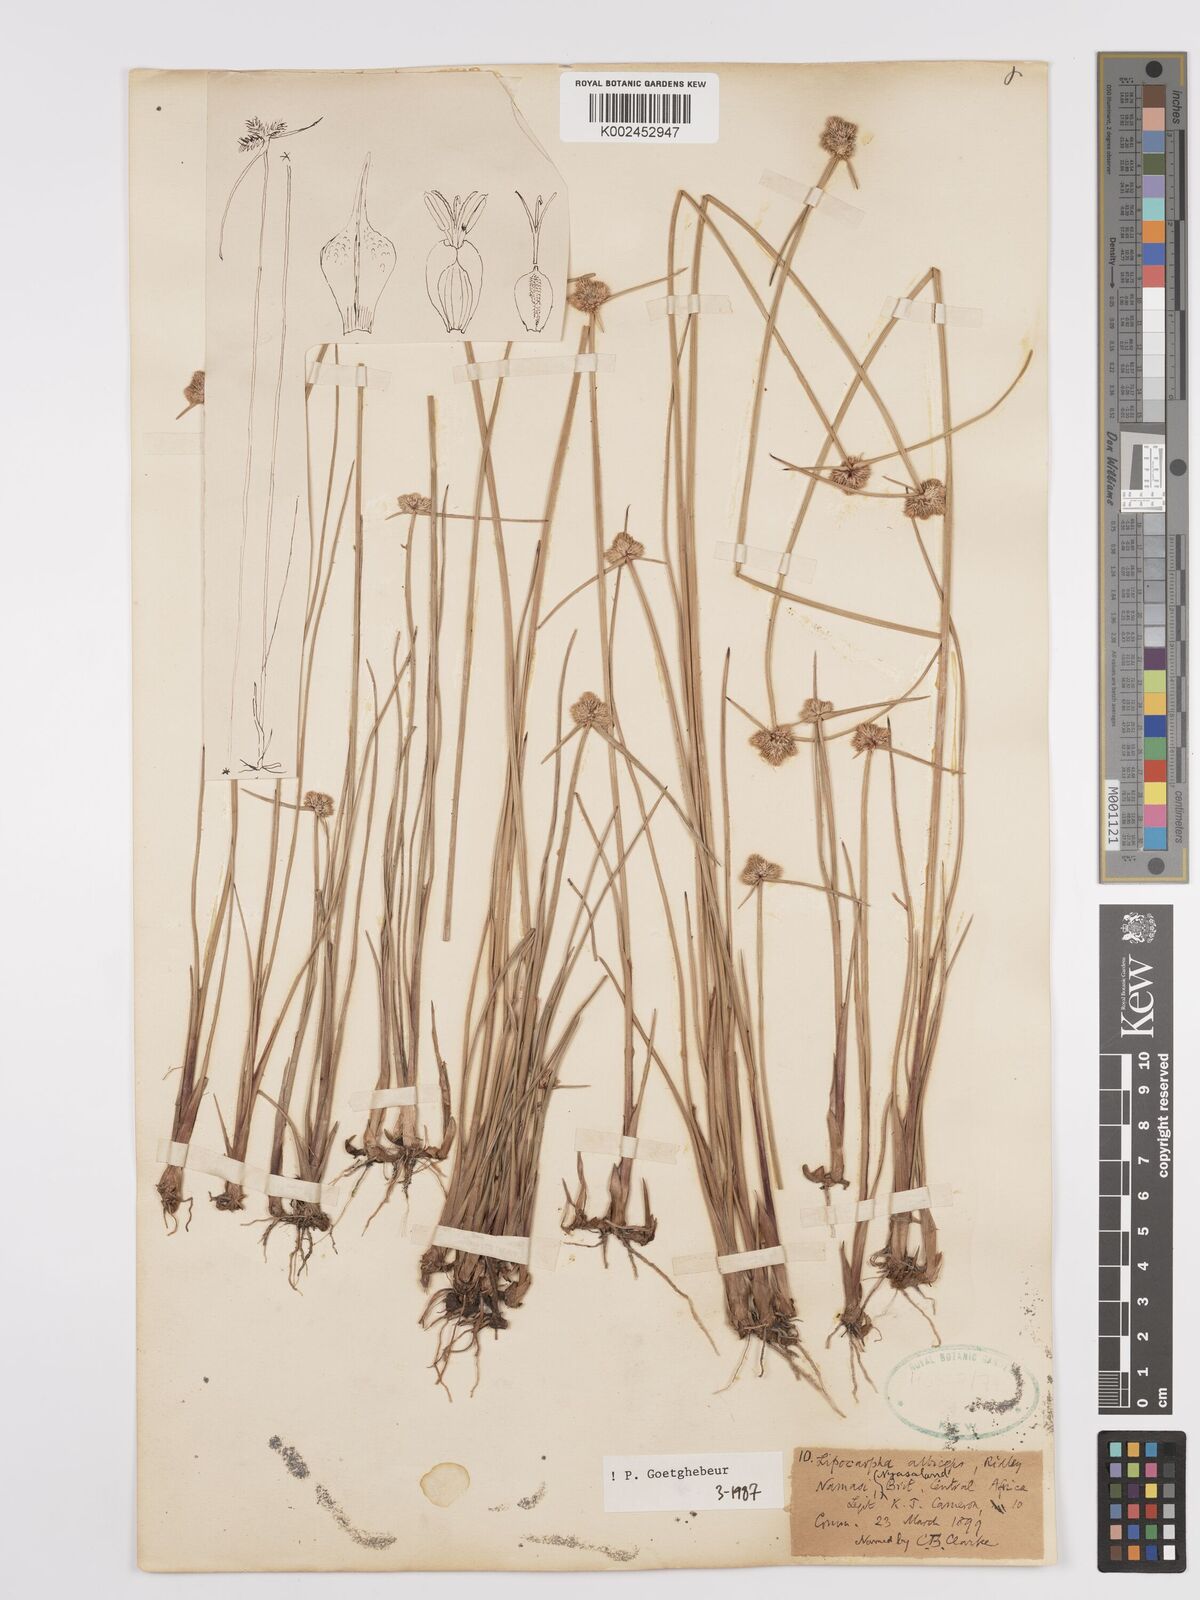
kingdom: Plantae
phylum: Tracheophyta
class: Liliopsida
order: Poales
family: Cyperaceae
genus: Cyperus
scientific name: Cyperus albiceps
